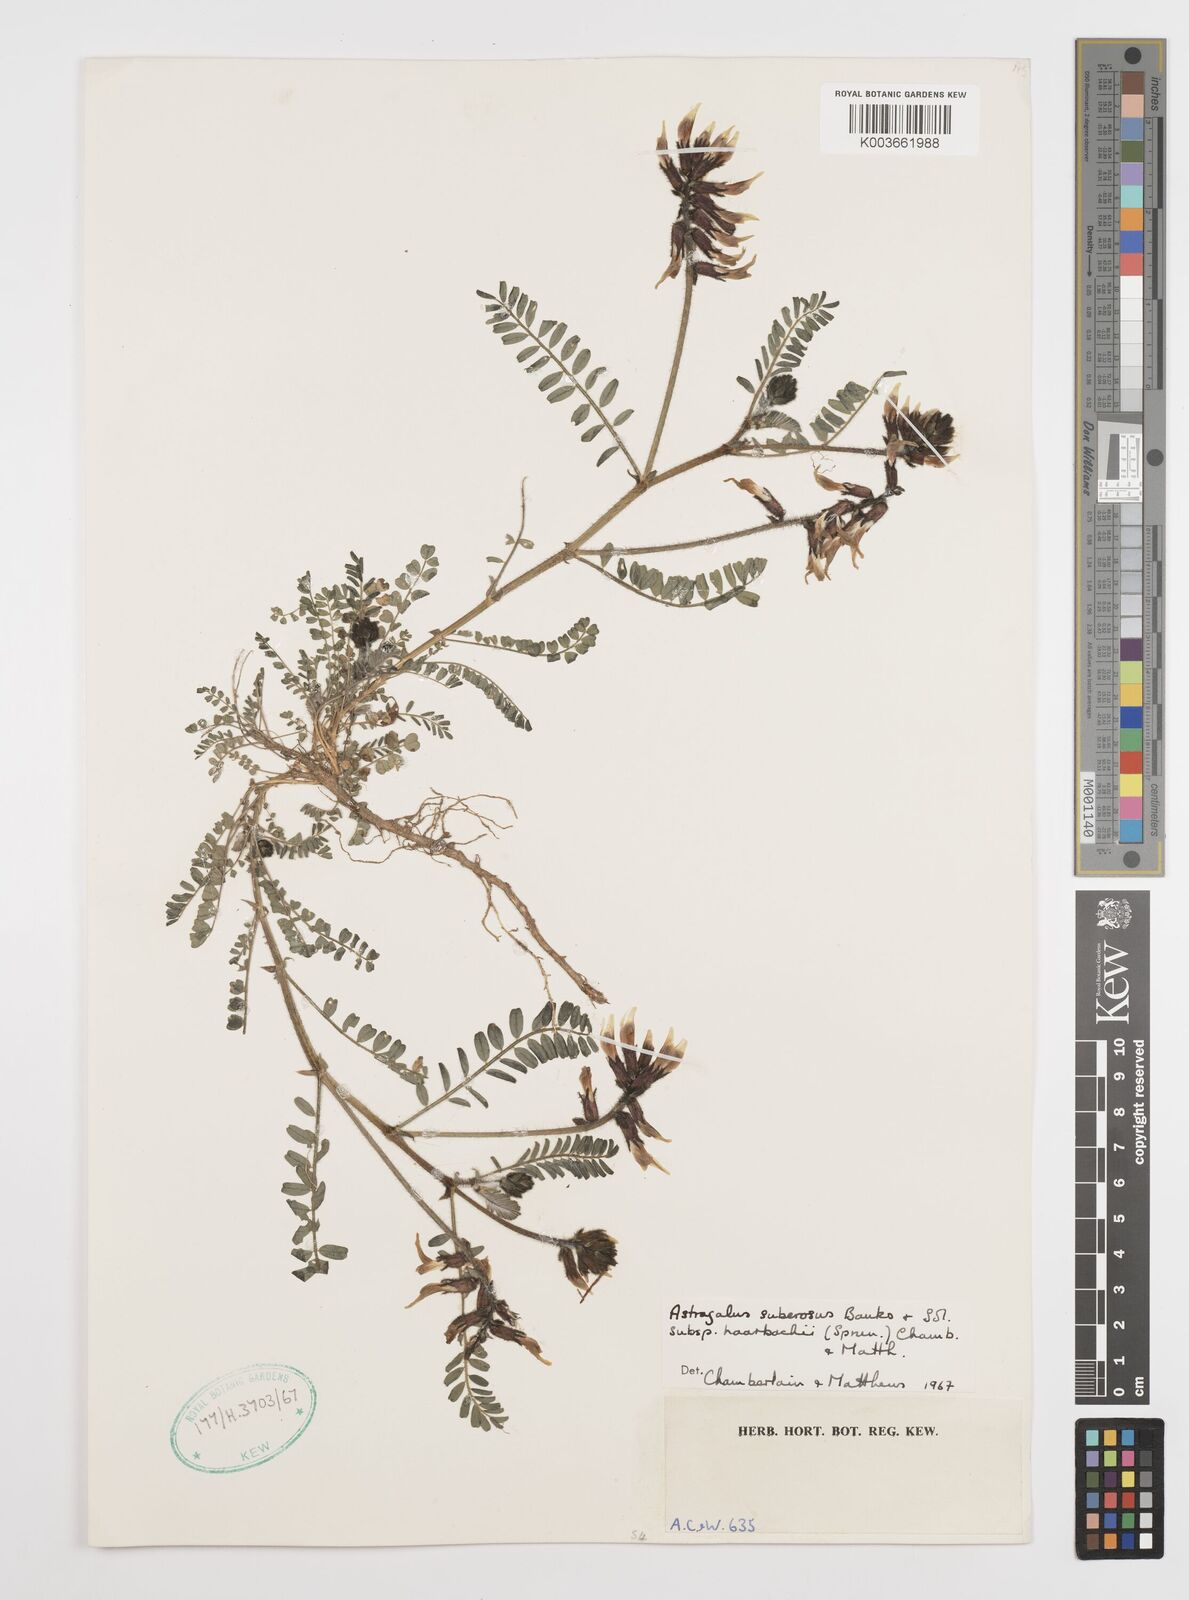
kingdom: Plantae
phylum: Tracheophyta
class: Magnoliopsida
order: Fabales
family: Fabaceae
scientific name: Fabaceae
